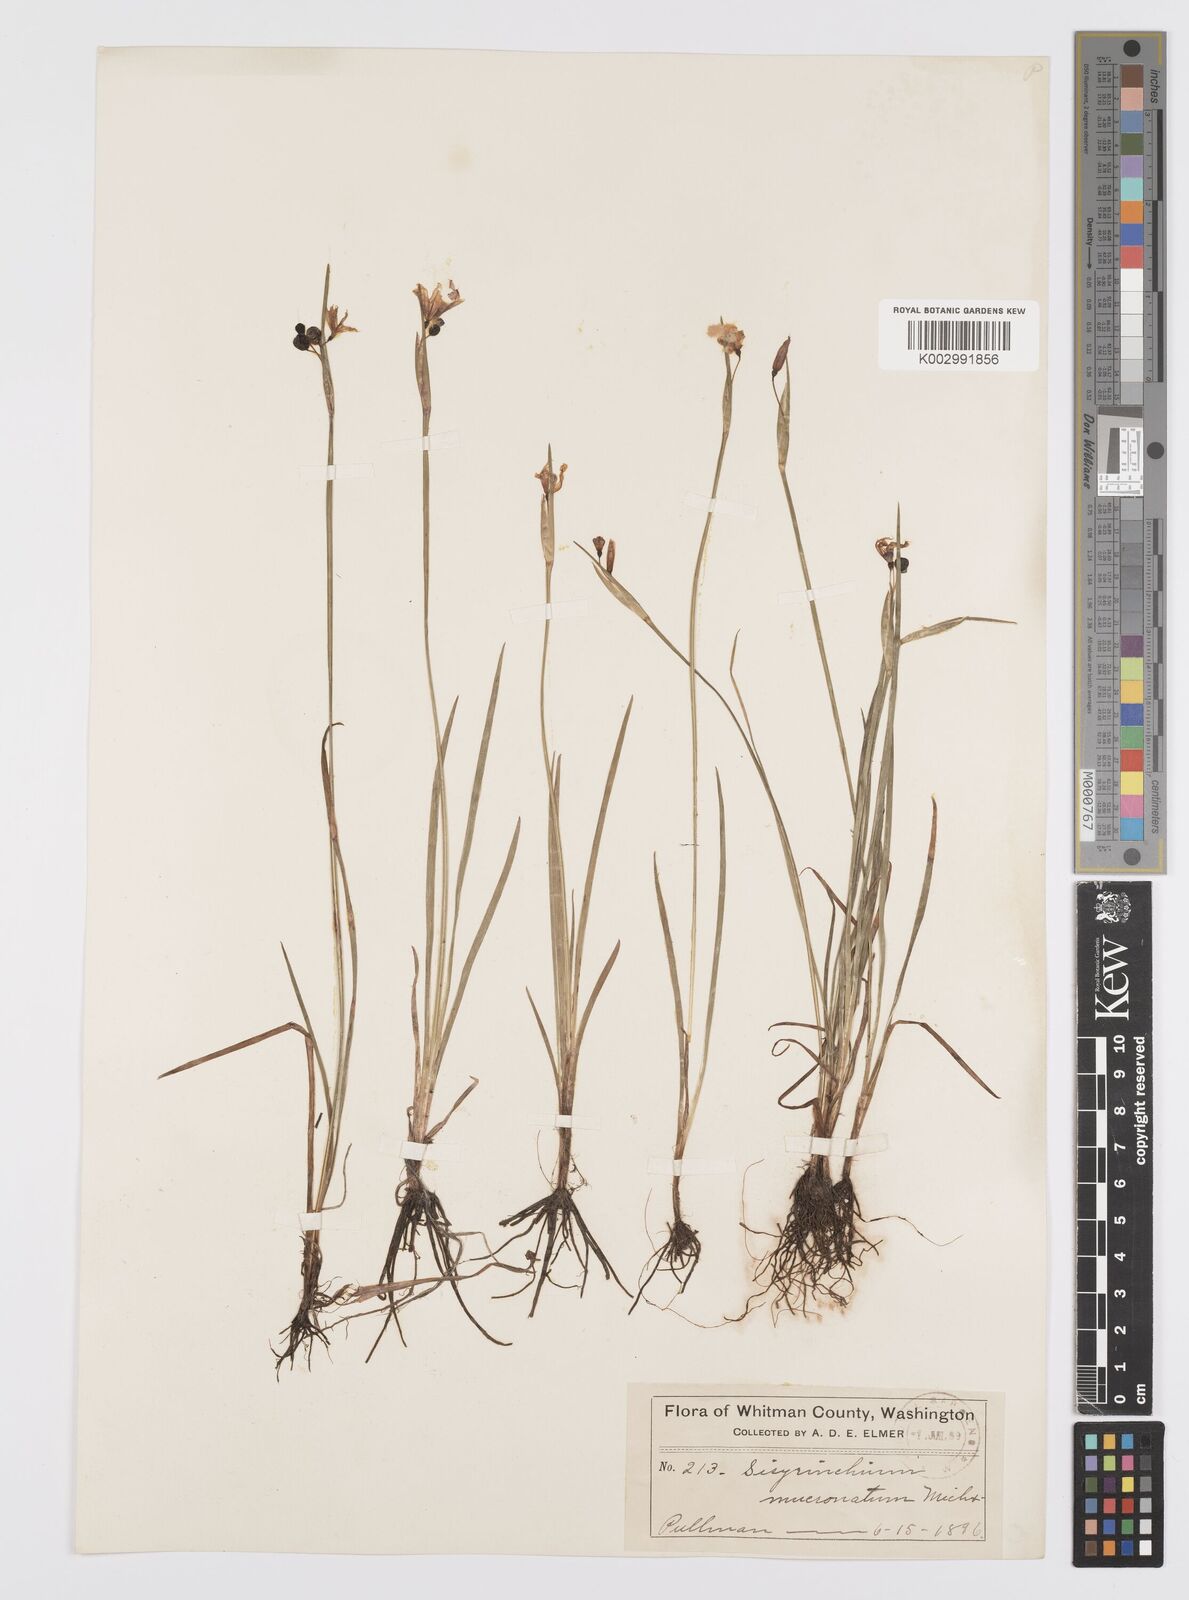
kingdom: Plantae
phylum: Tracheophyta
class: Liliopsida
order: Asparagales
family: Iridaceae
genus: Sisyrinchium
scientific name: Sisyrinchium bermudiana
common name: Blue-eyed-grass
